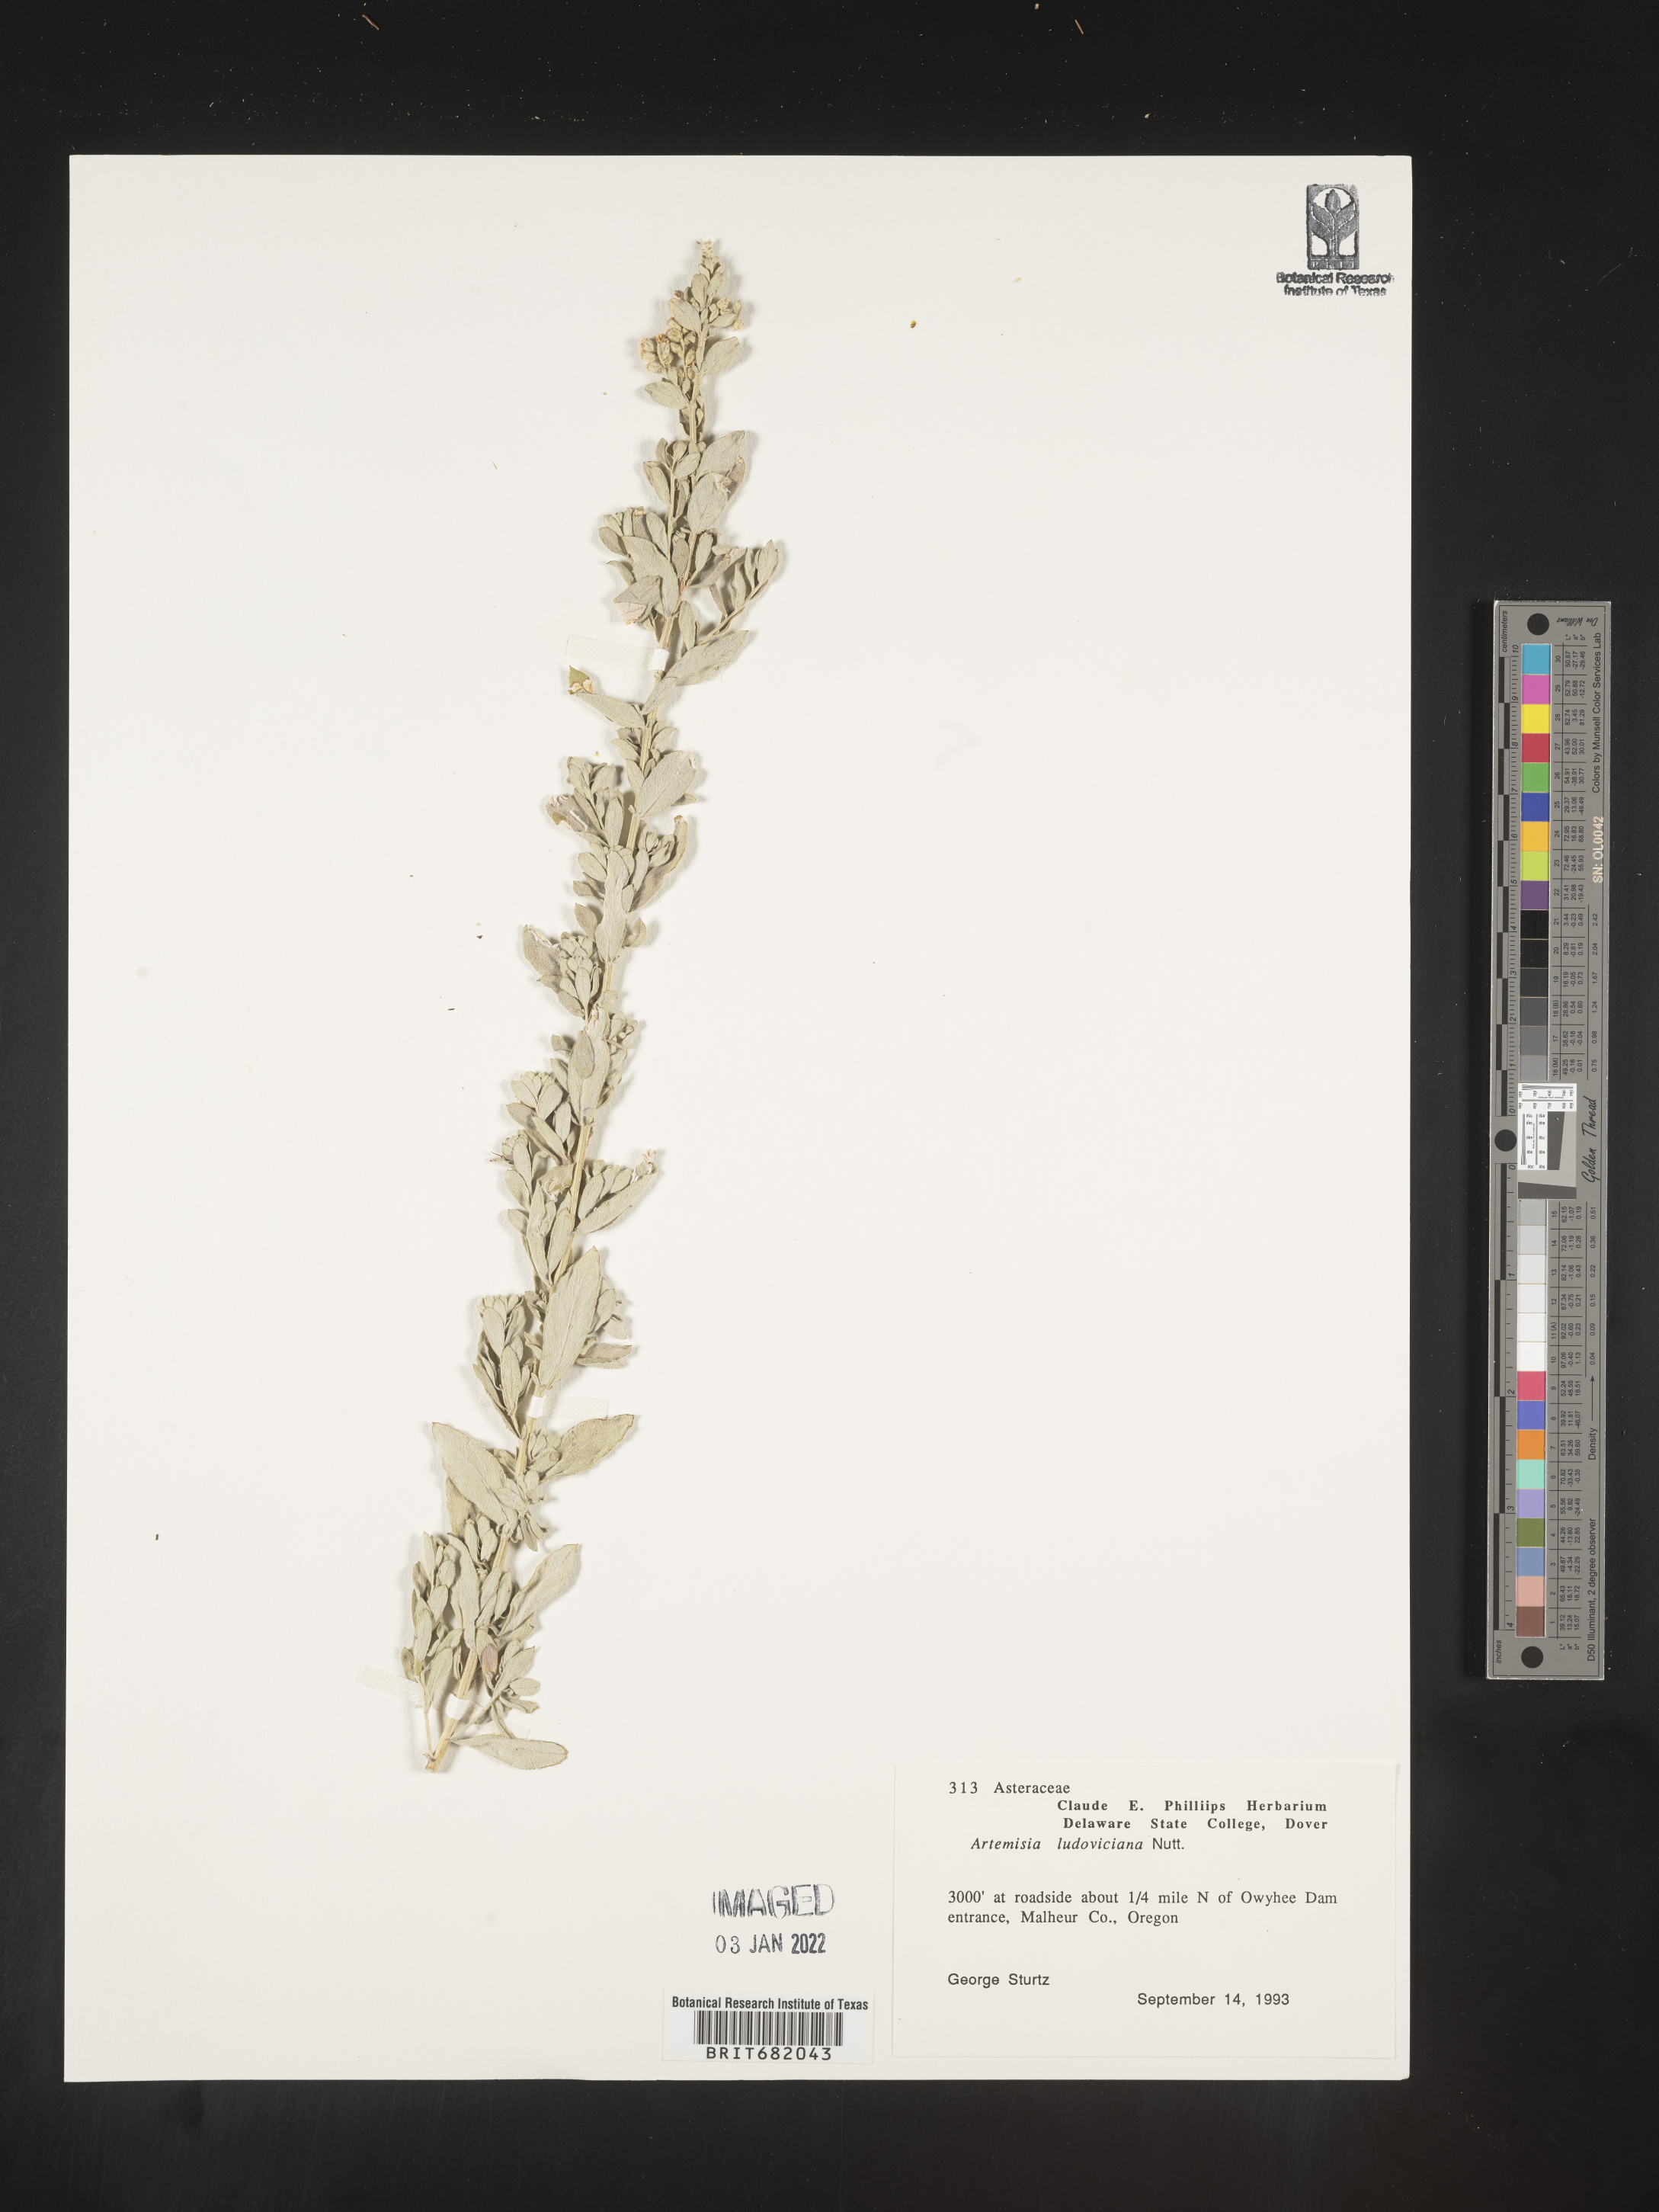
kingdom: Plantae
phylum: Tracheophyta
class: Magnoliopsida
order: Asterales
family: Asteraceae
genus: Artemisia
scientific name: Artemisia ludoviciana
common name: Western mugwort
